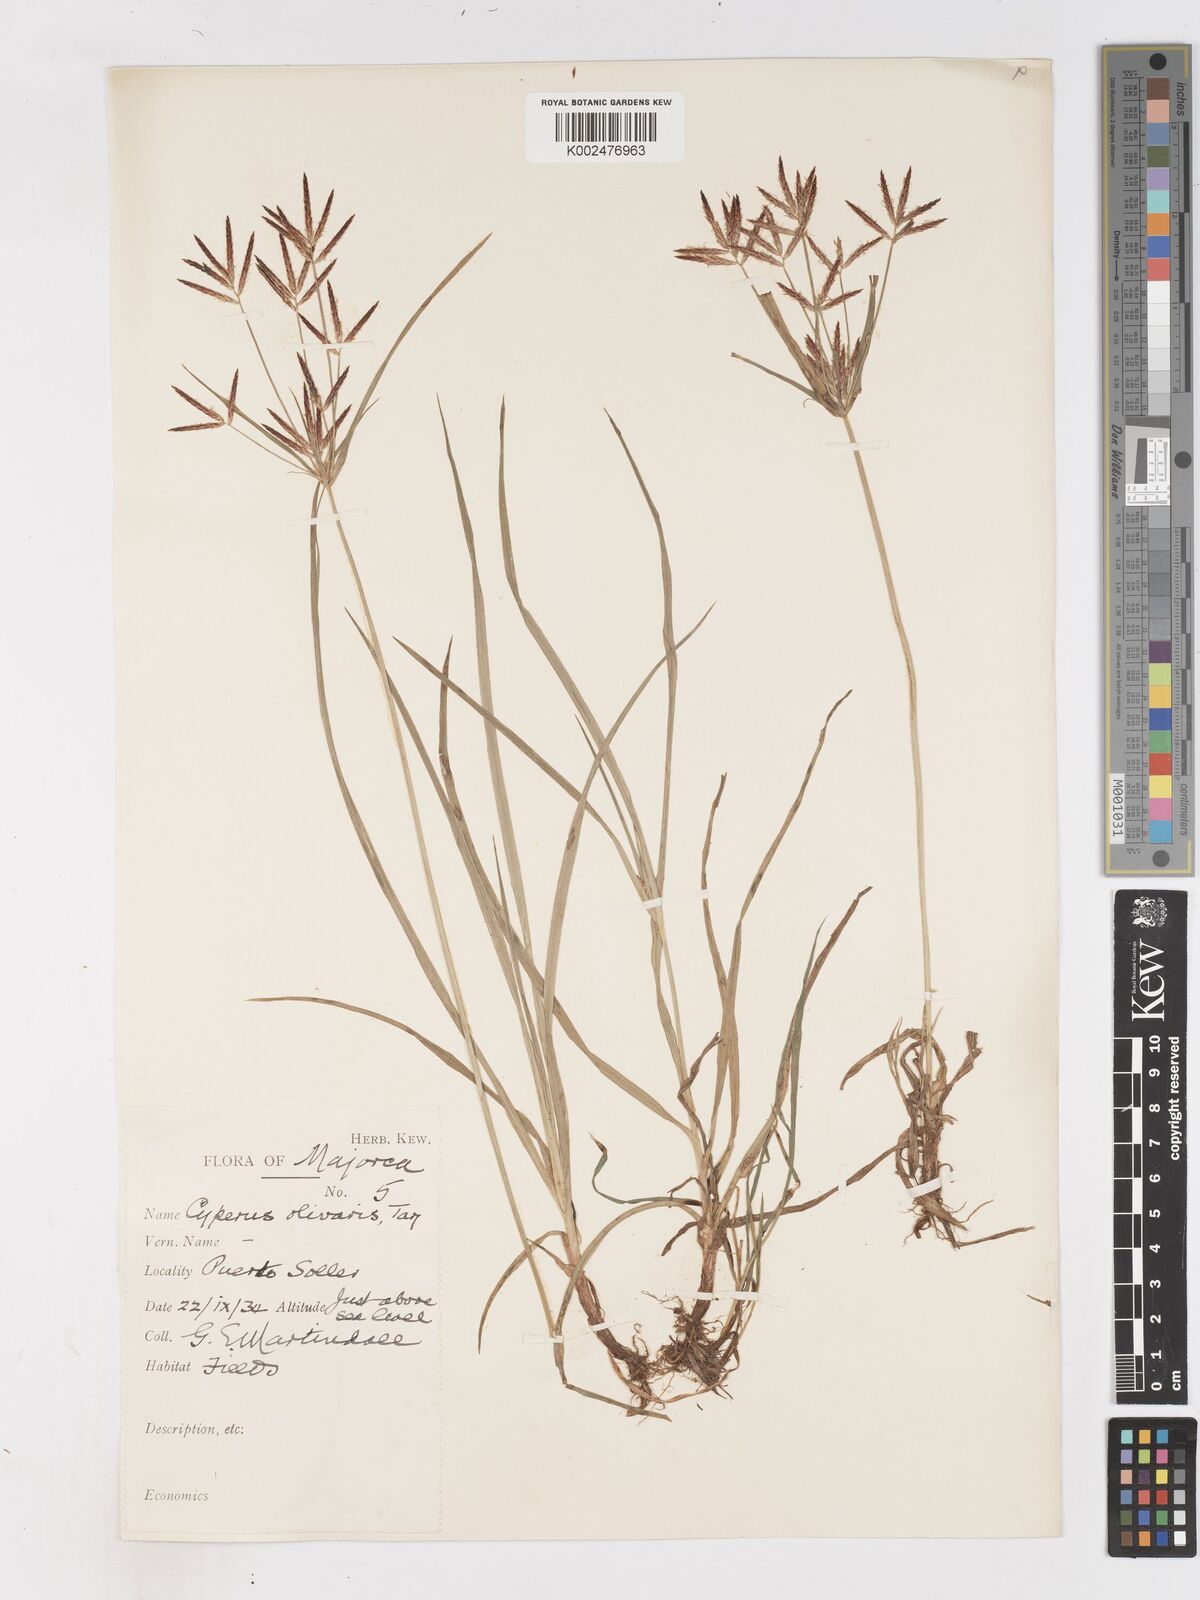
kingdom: Plantae
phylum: Tracheophyta
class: Liliopsida
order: Poales
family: Cyperaceae
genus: Cyperus
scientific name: Cyperus rotundus
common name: Nutgrass
